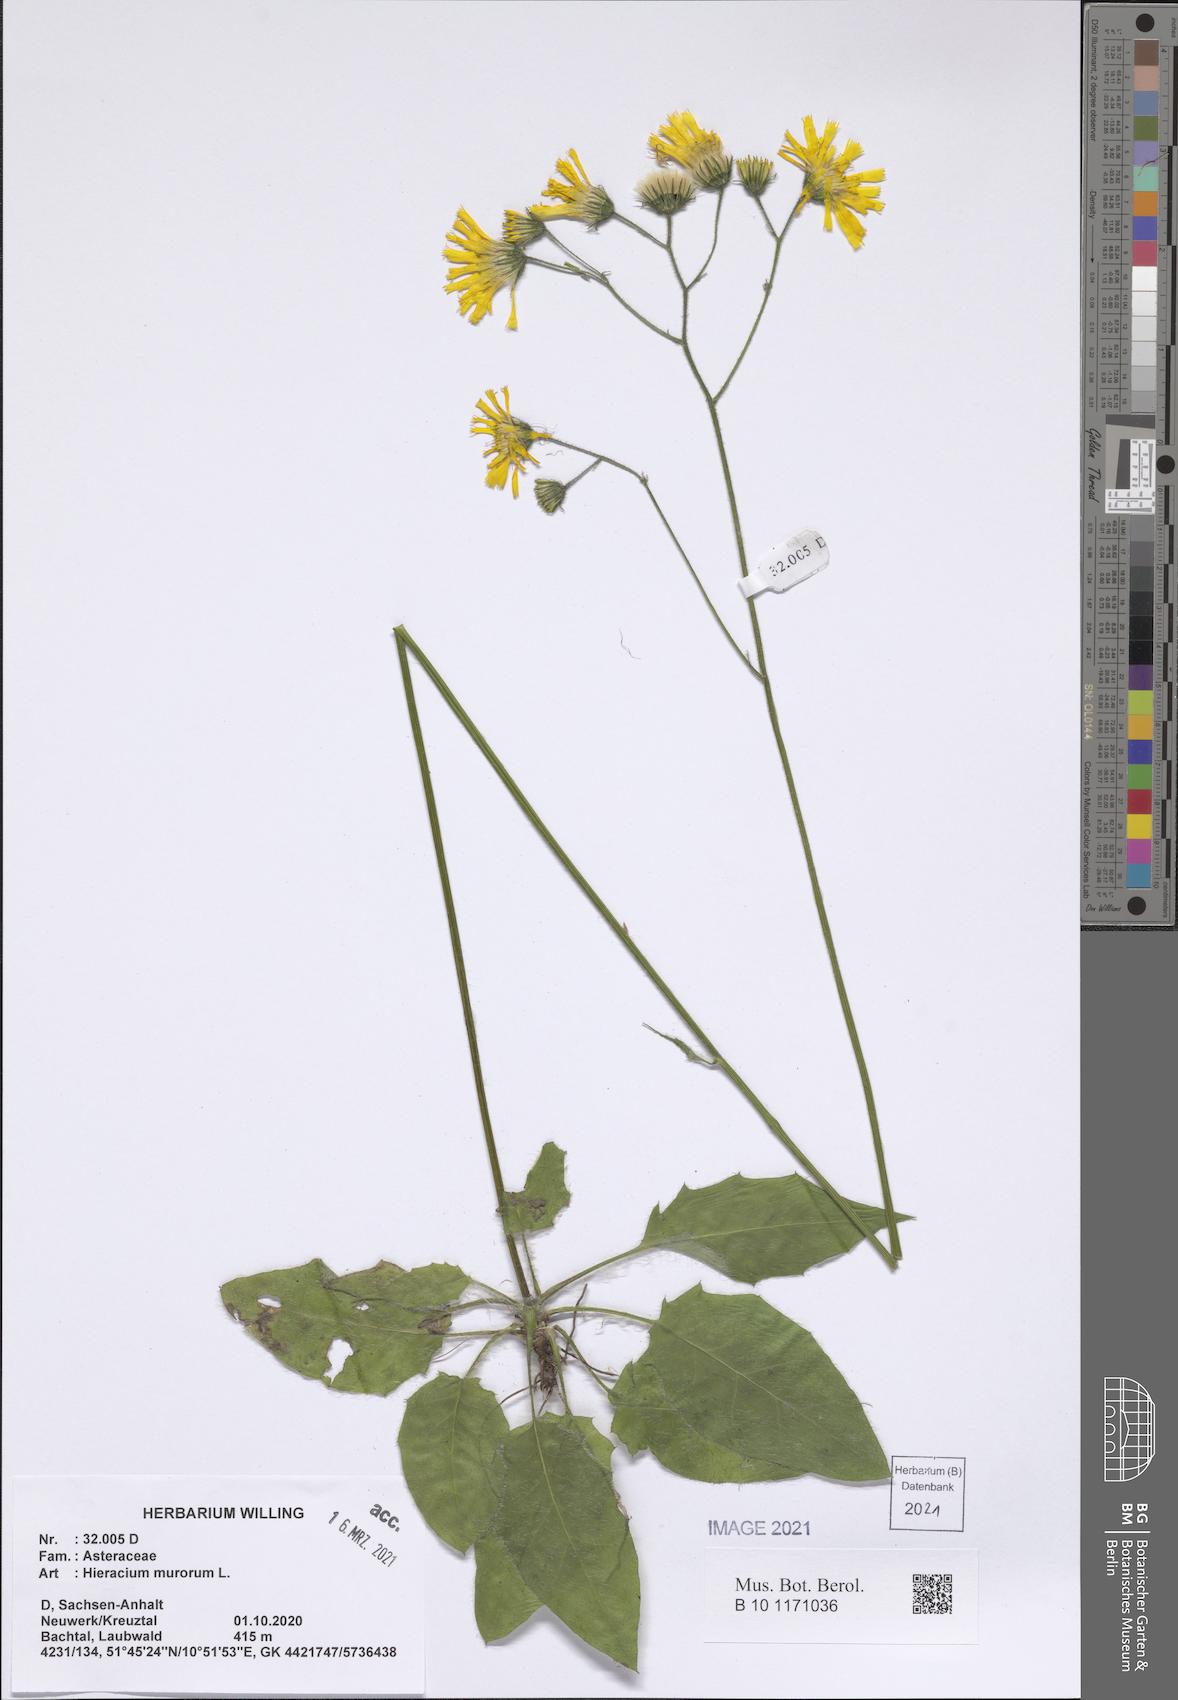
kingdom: Plantae
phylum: Tracheophyta
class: Magnoliopsida
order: Asterales
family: Asteraceae
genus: Hieracium
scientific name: Hieracium murorum
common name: Wall hawkweed
